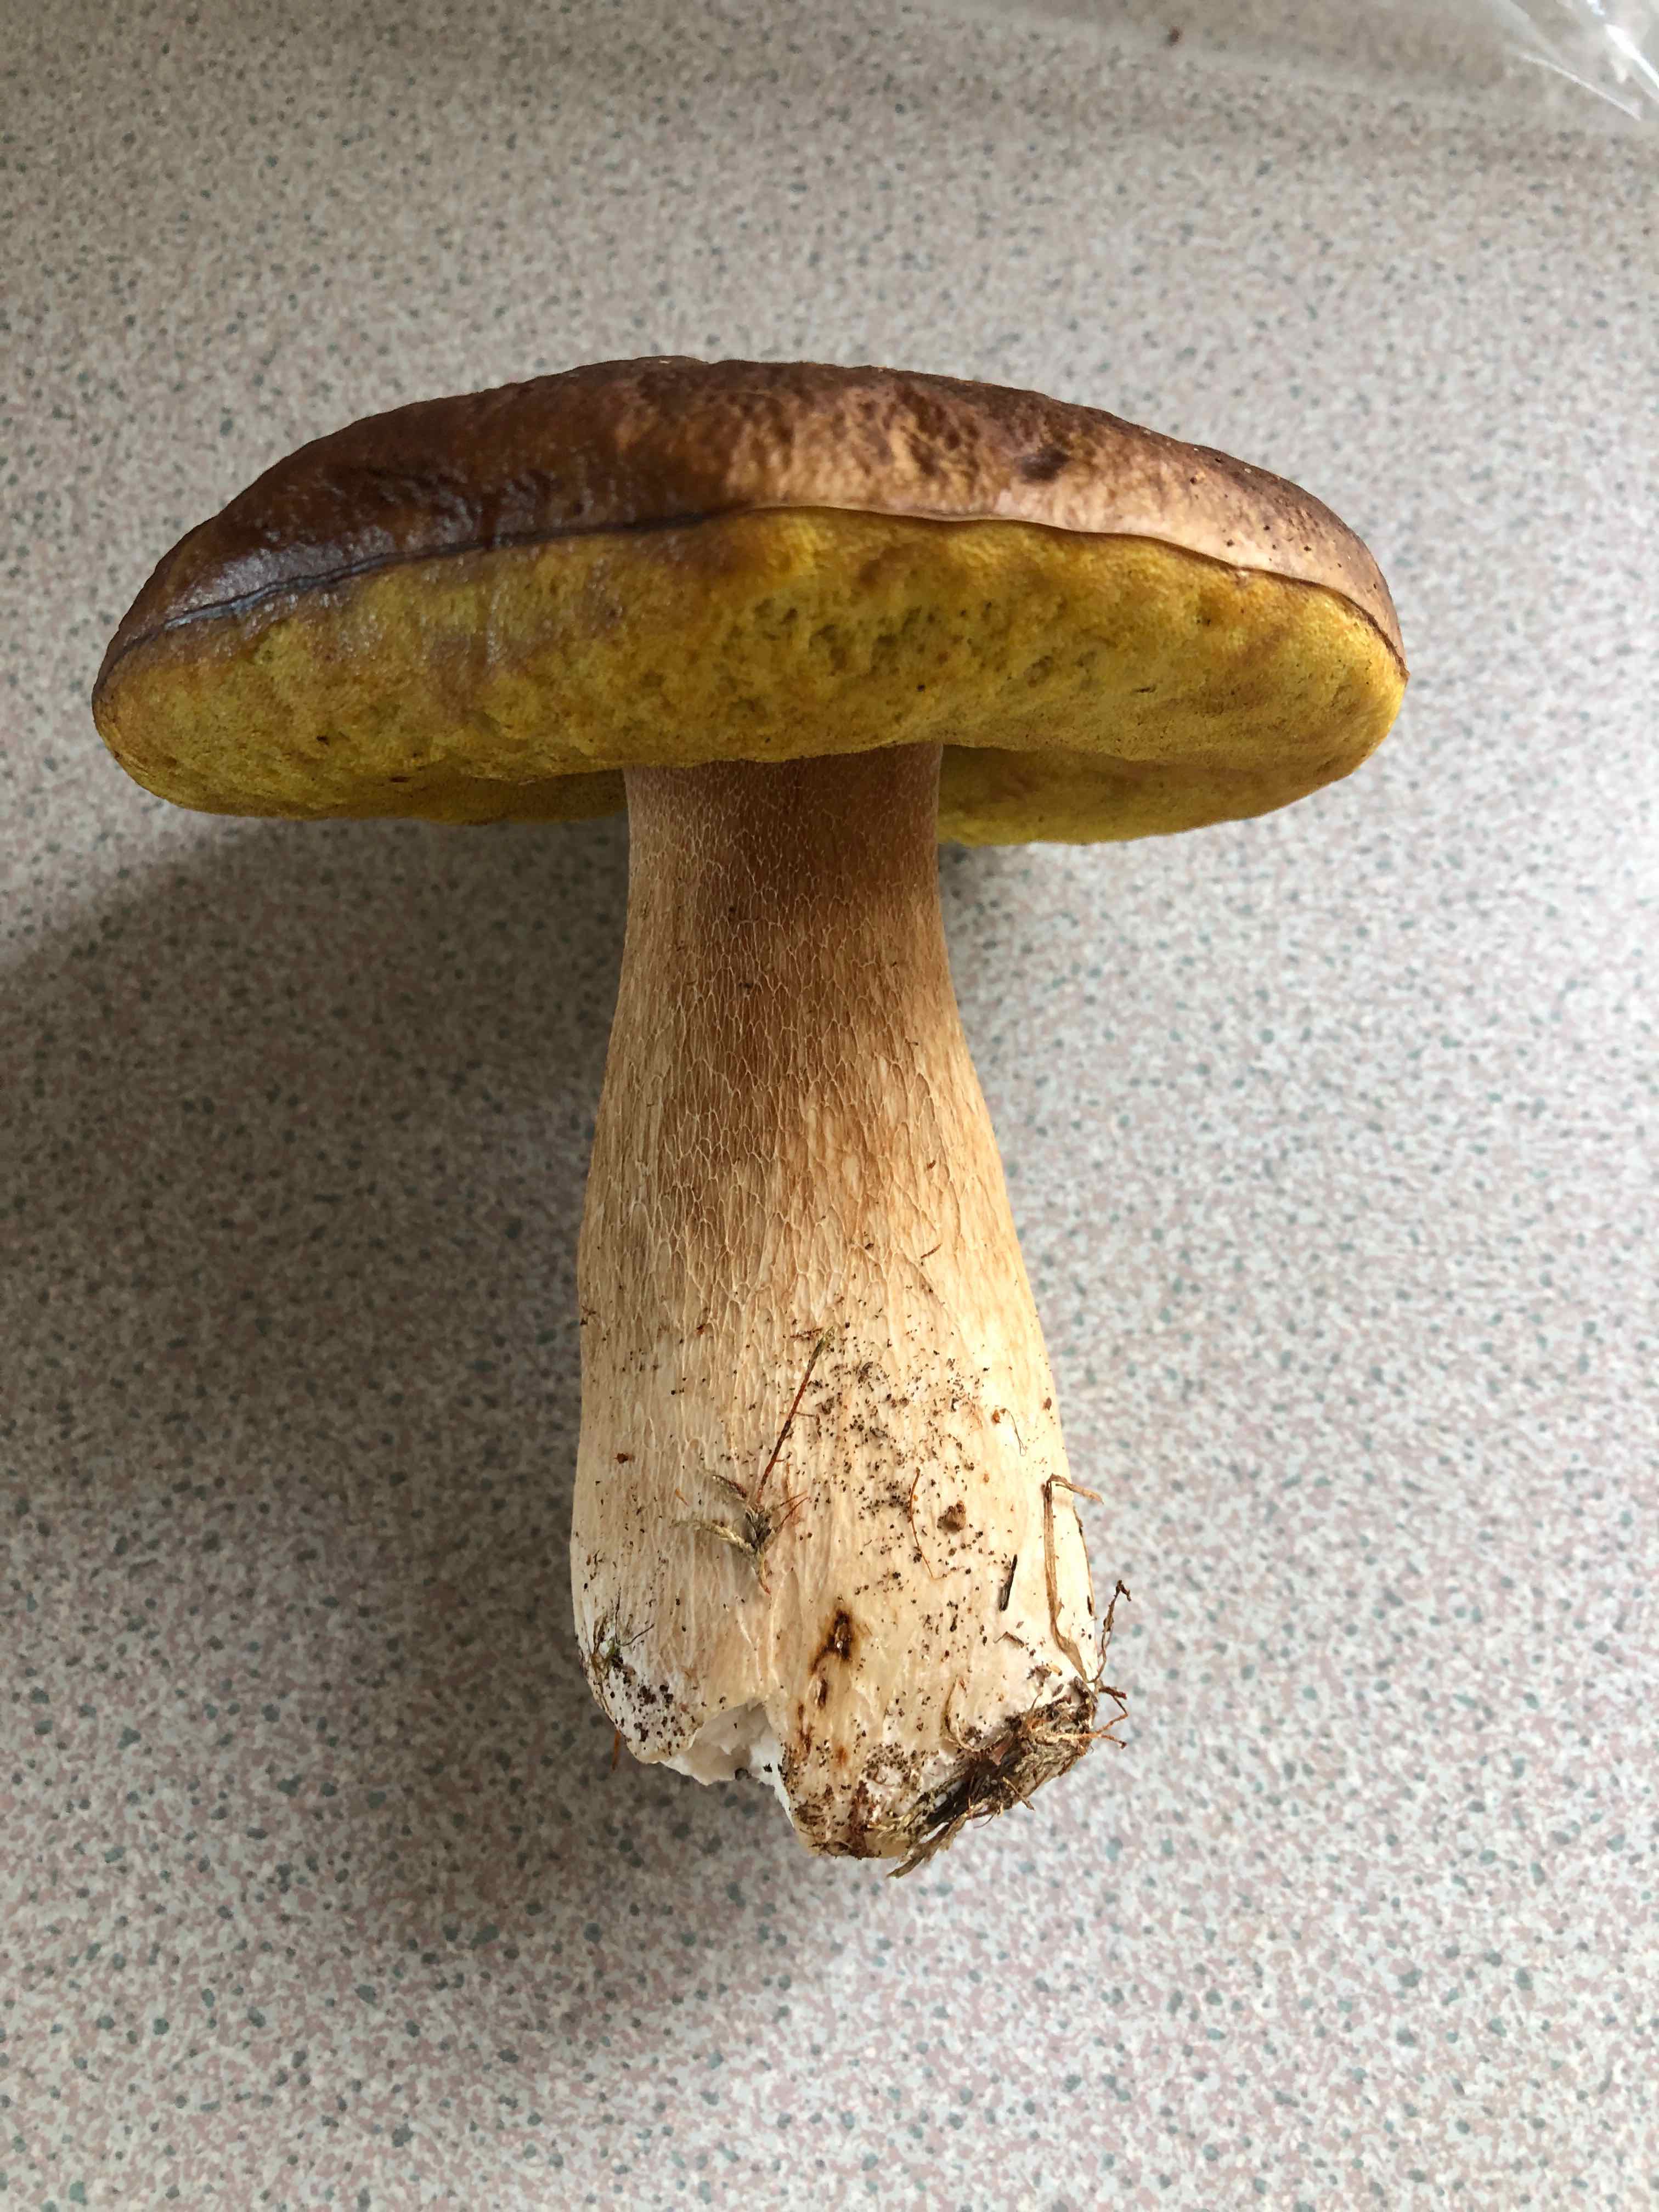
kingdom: Fungi
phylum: Basidiomycota
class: Agaricomycetes
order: Boletales
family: Boletaceae
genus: Boletus
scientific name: Boletus edulis
